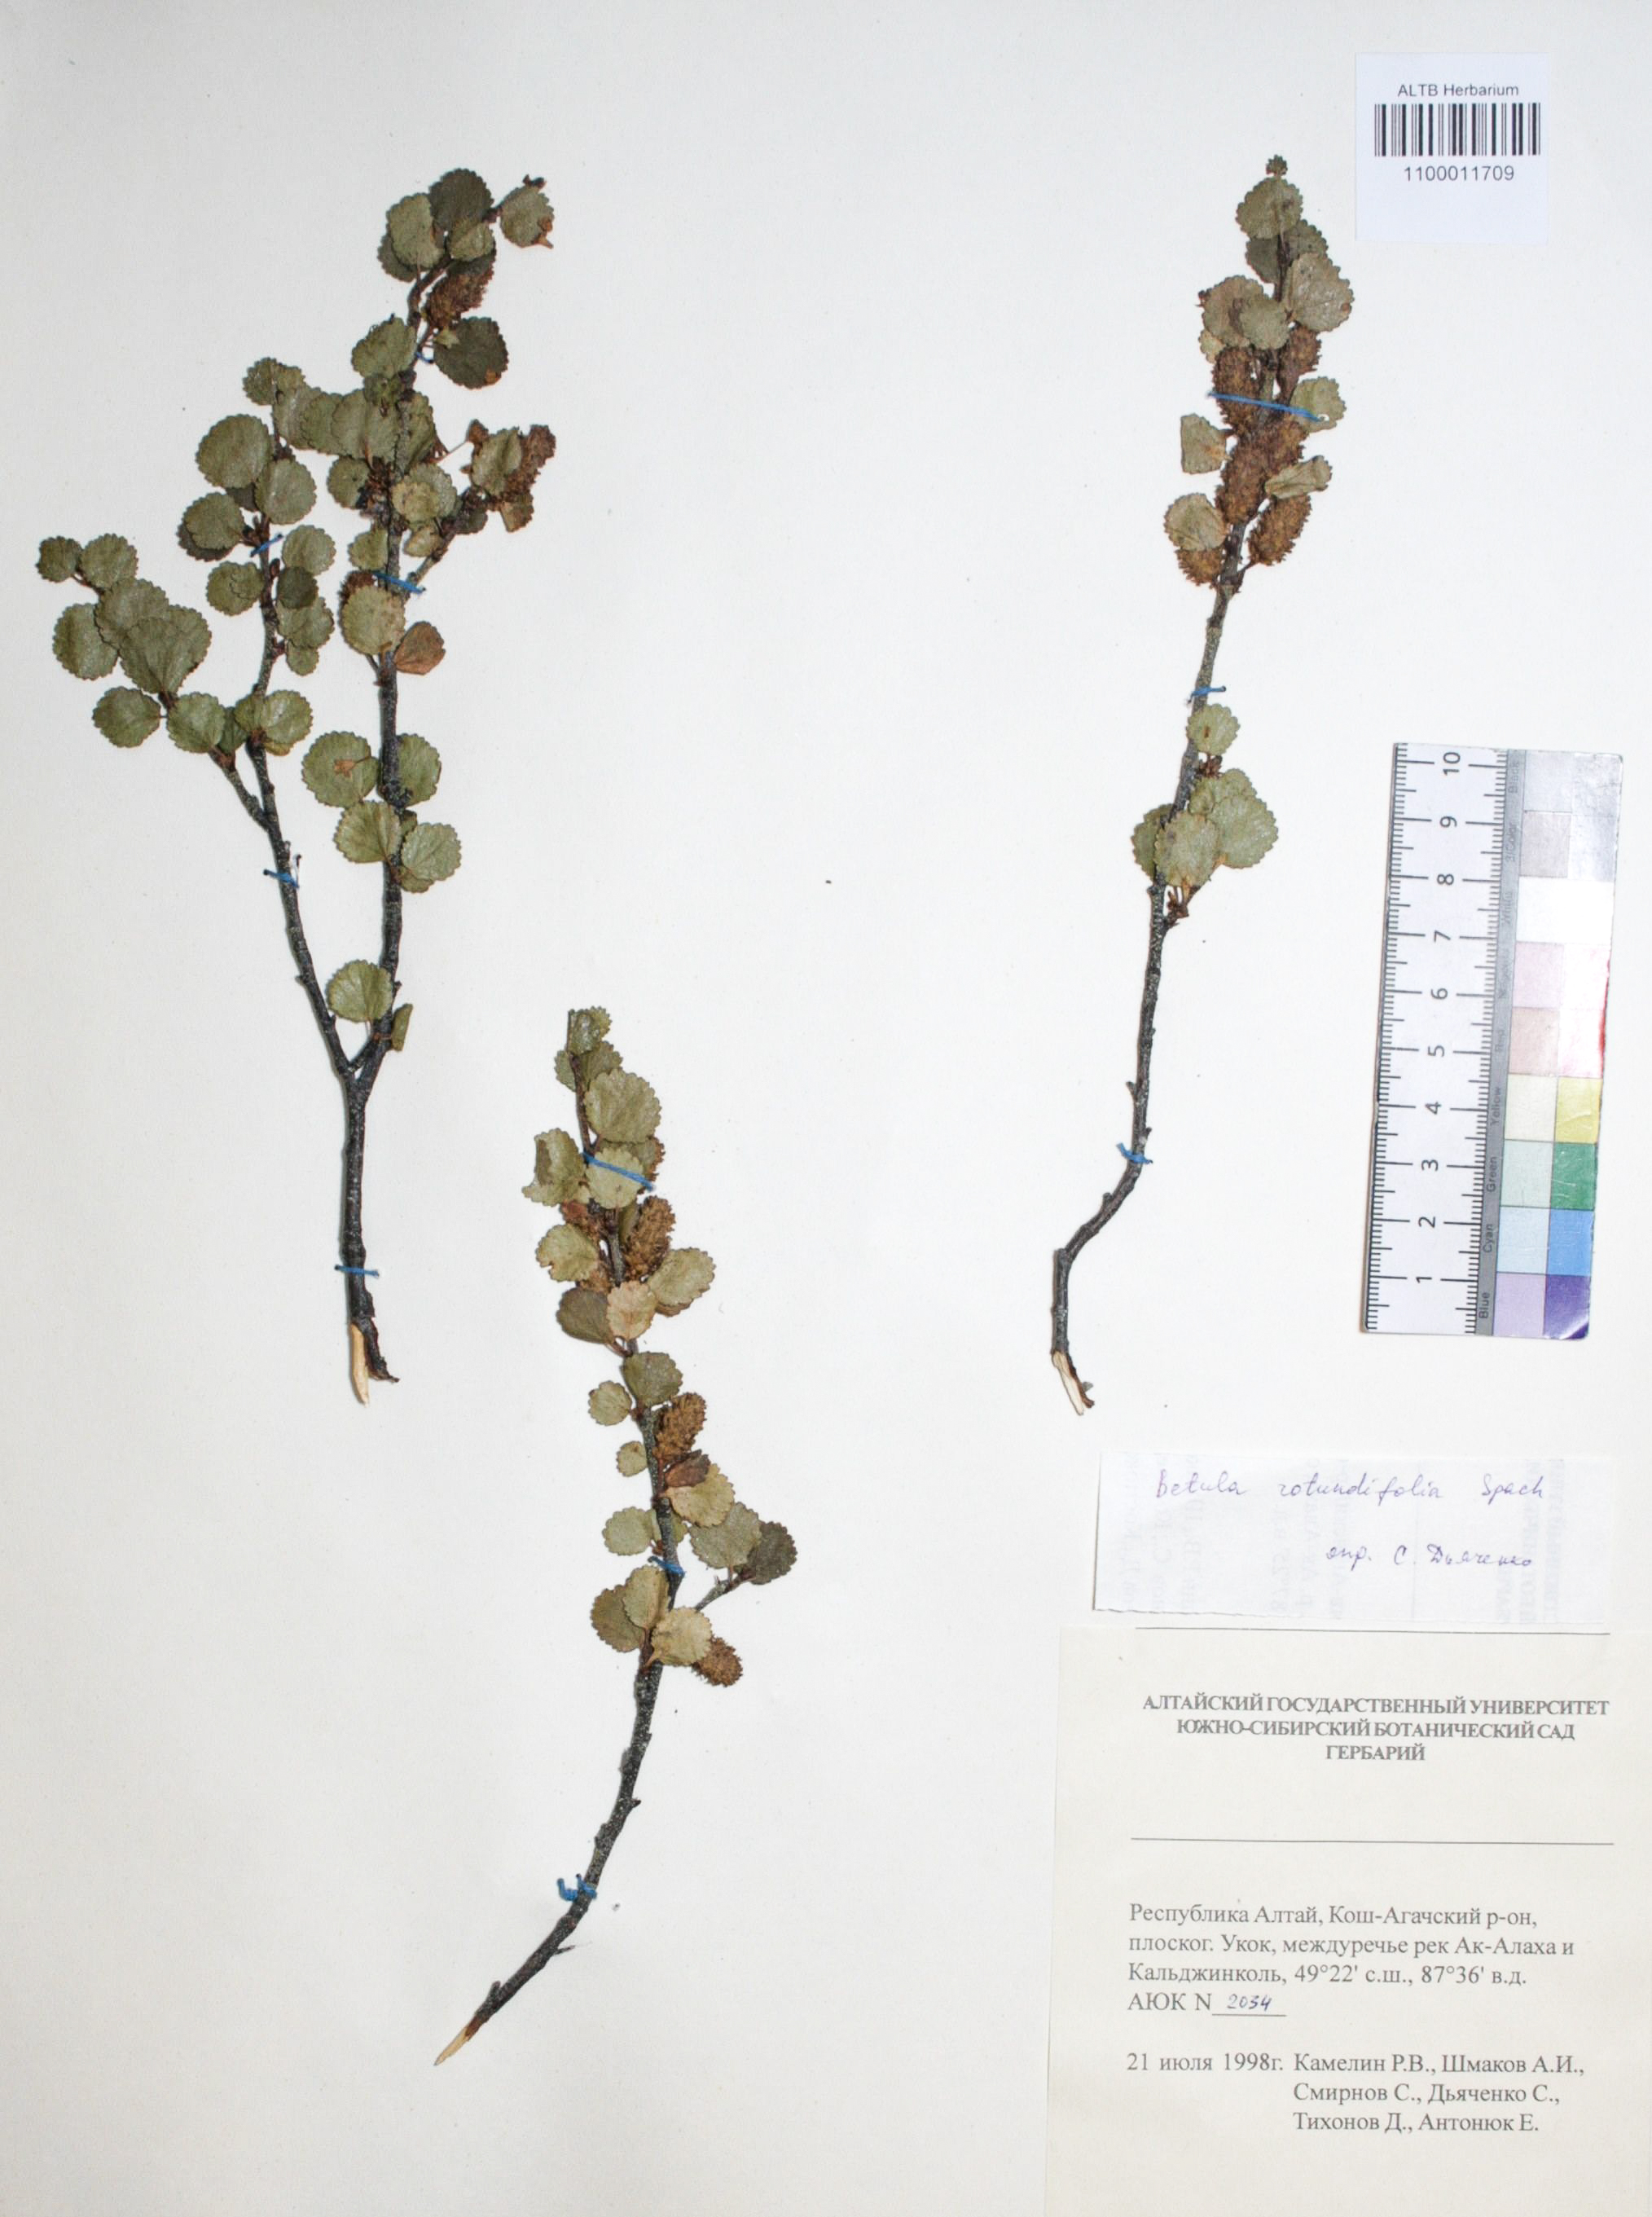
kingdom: Plantae
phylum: Tracheophyta
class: Magnoliopsida
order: Fagales
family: Betulaceae
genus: Betula
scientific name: Betula glandulosa
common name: Dwarf birch
